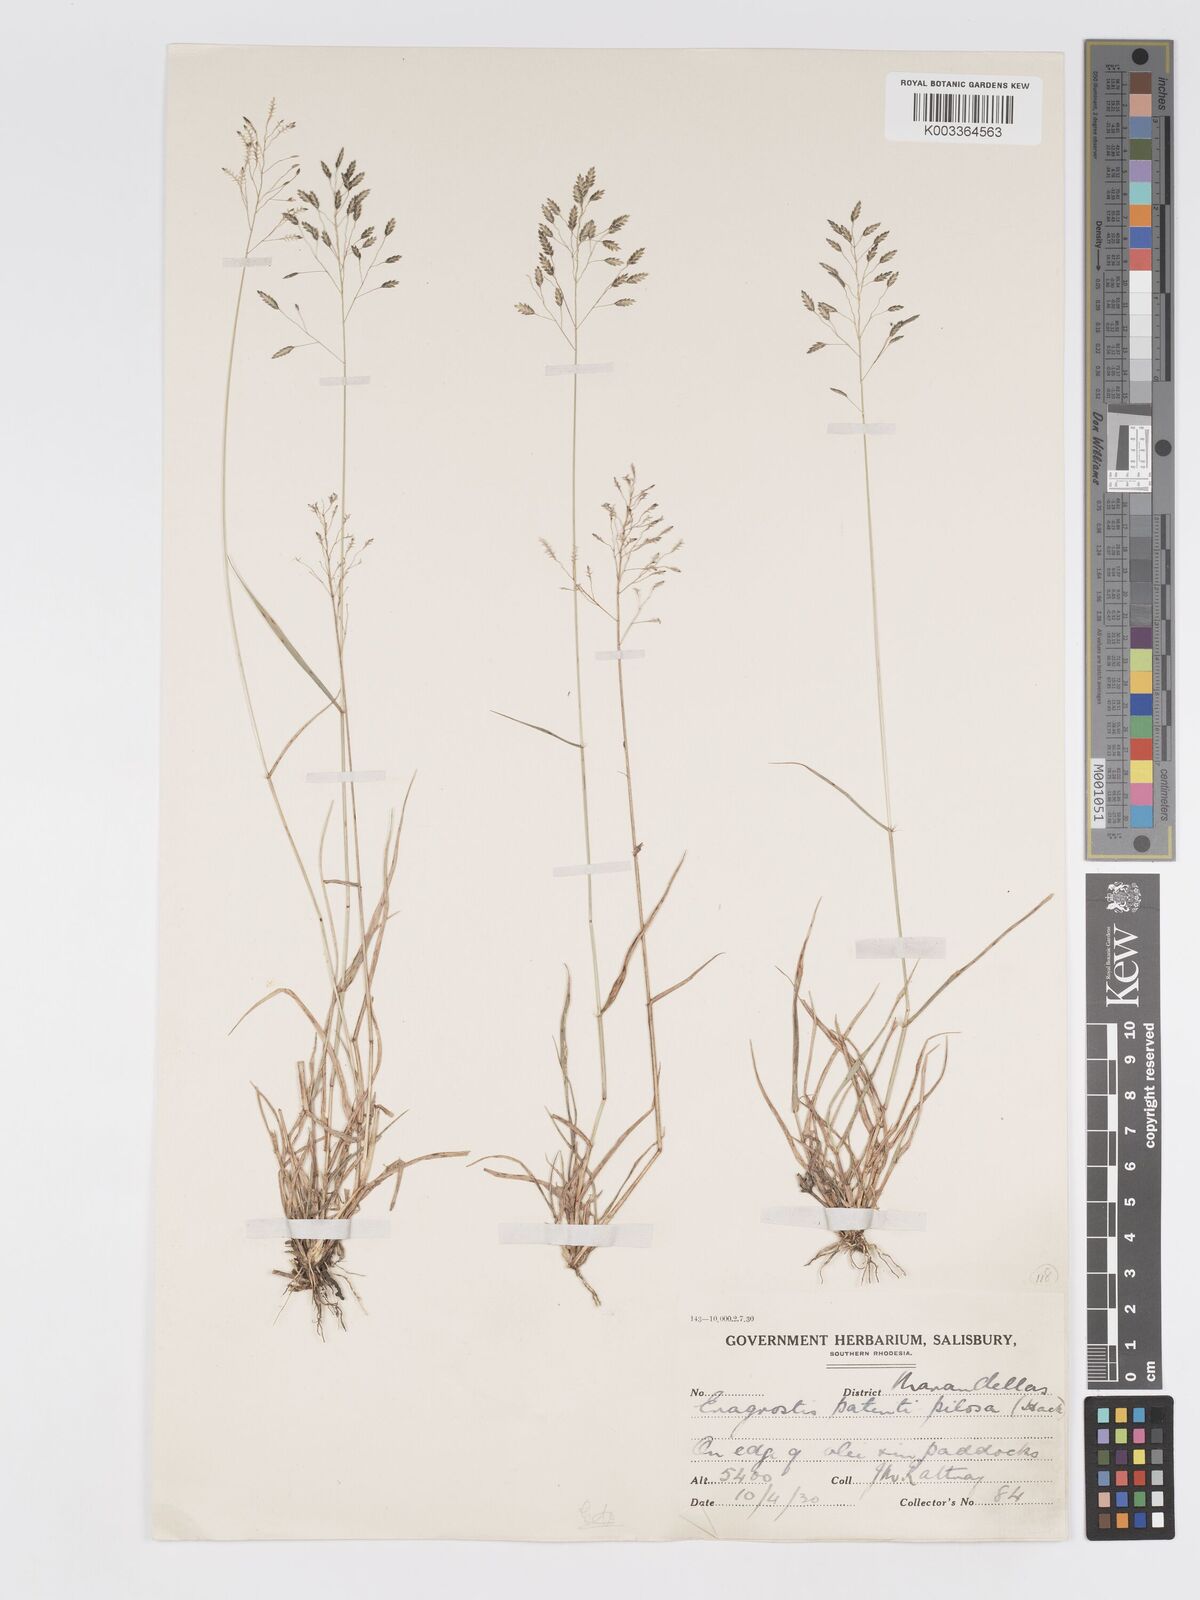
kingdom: Plantae
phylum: Tracheophyta
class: Liliopsida
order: Poales
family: Poaceae
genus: Eragrostis
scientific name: Eragrostis patentipilosa
